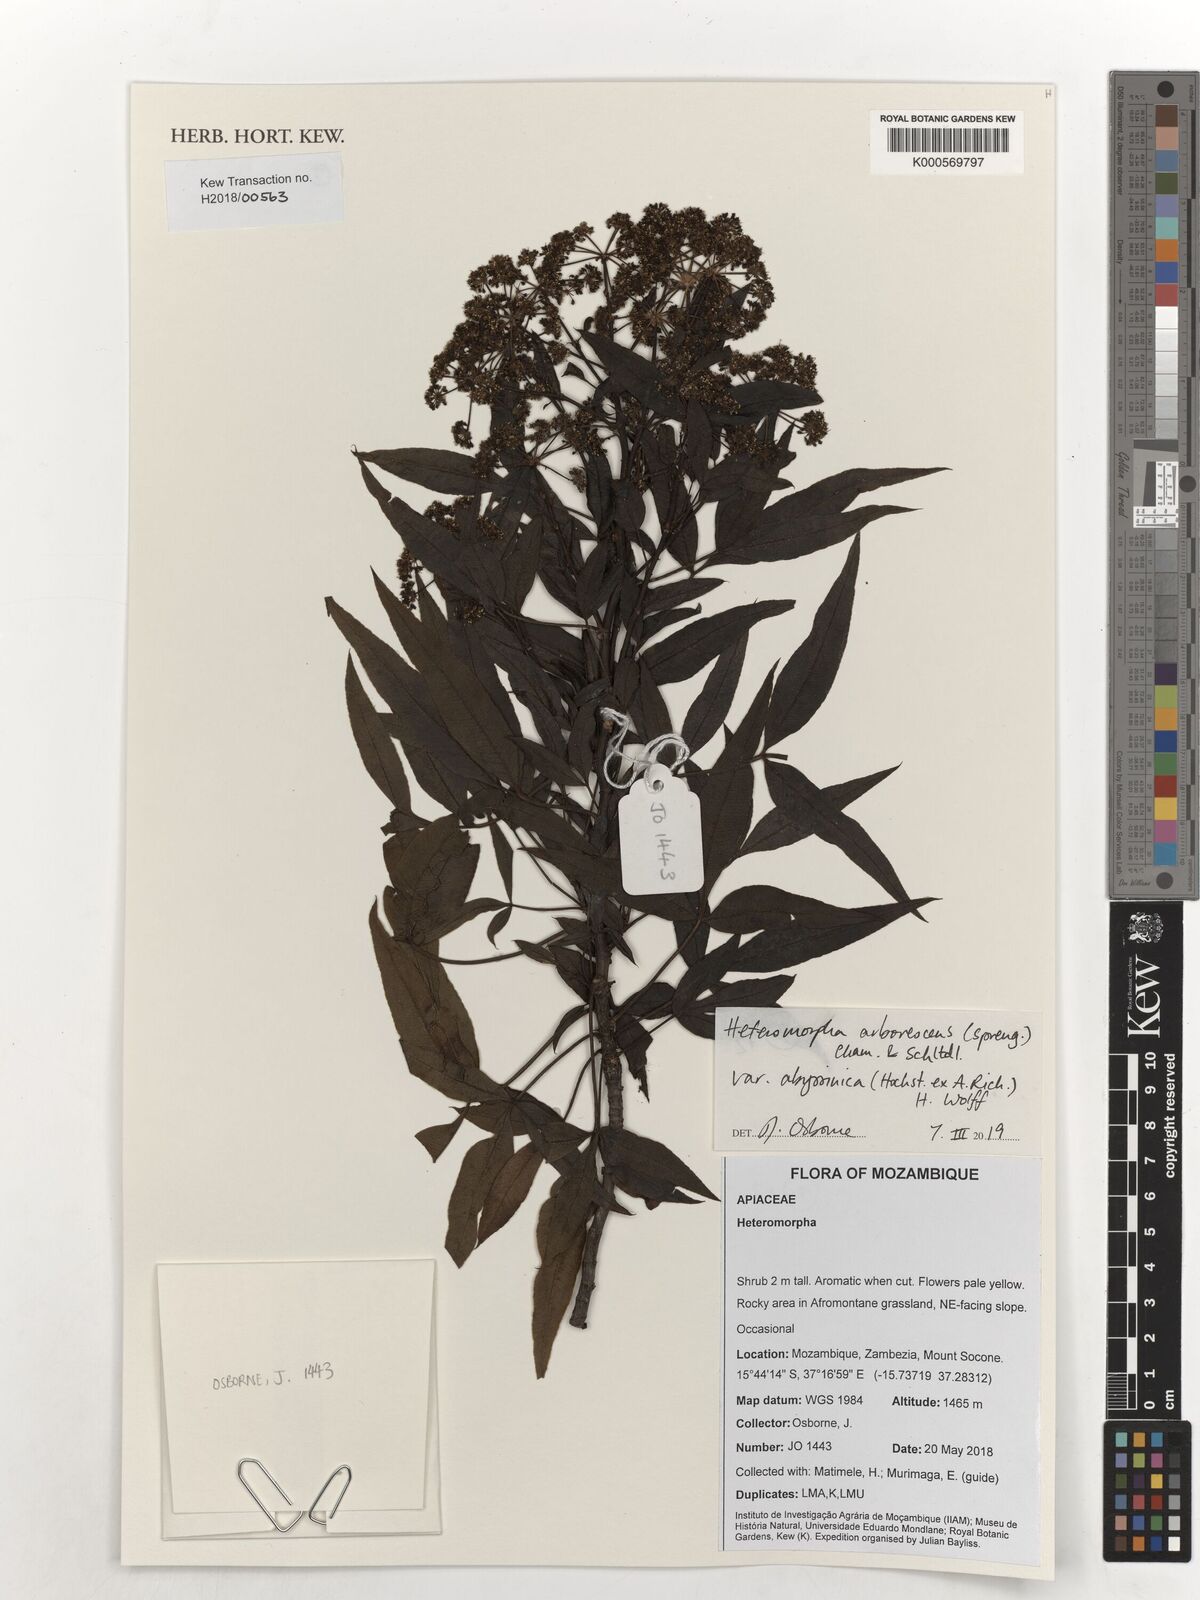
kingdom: Plantae
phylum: Tracheophyta
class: Magnoliopsida
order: Apiales
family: Apiaceae
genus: Heteromorpha
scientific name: Heteromorpha arborescens
